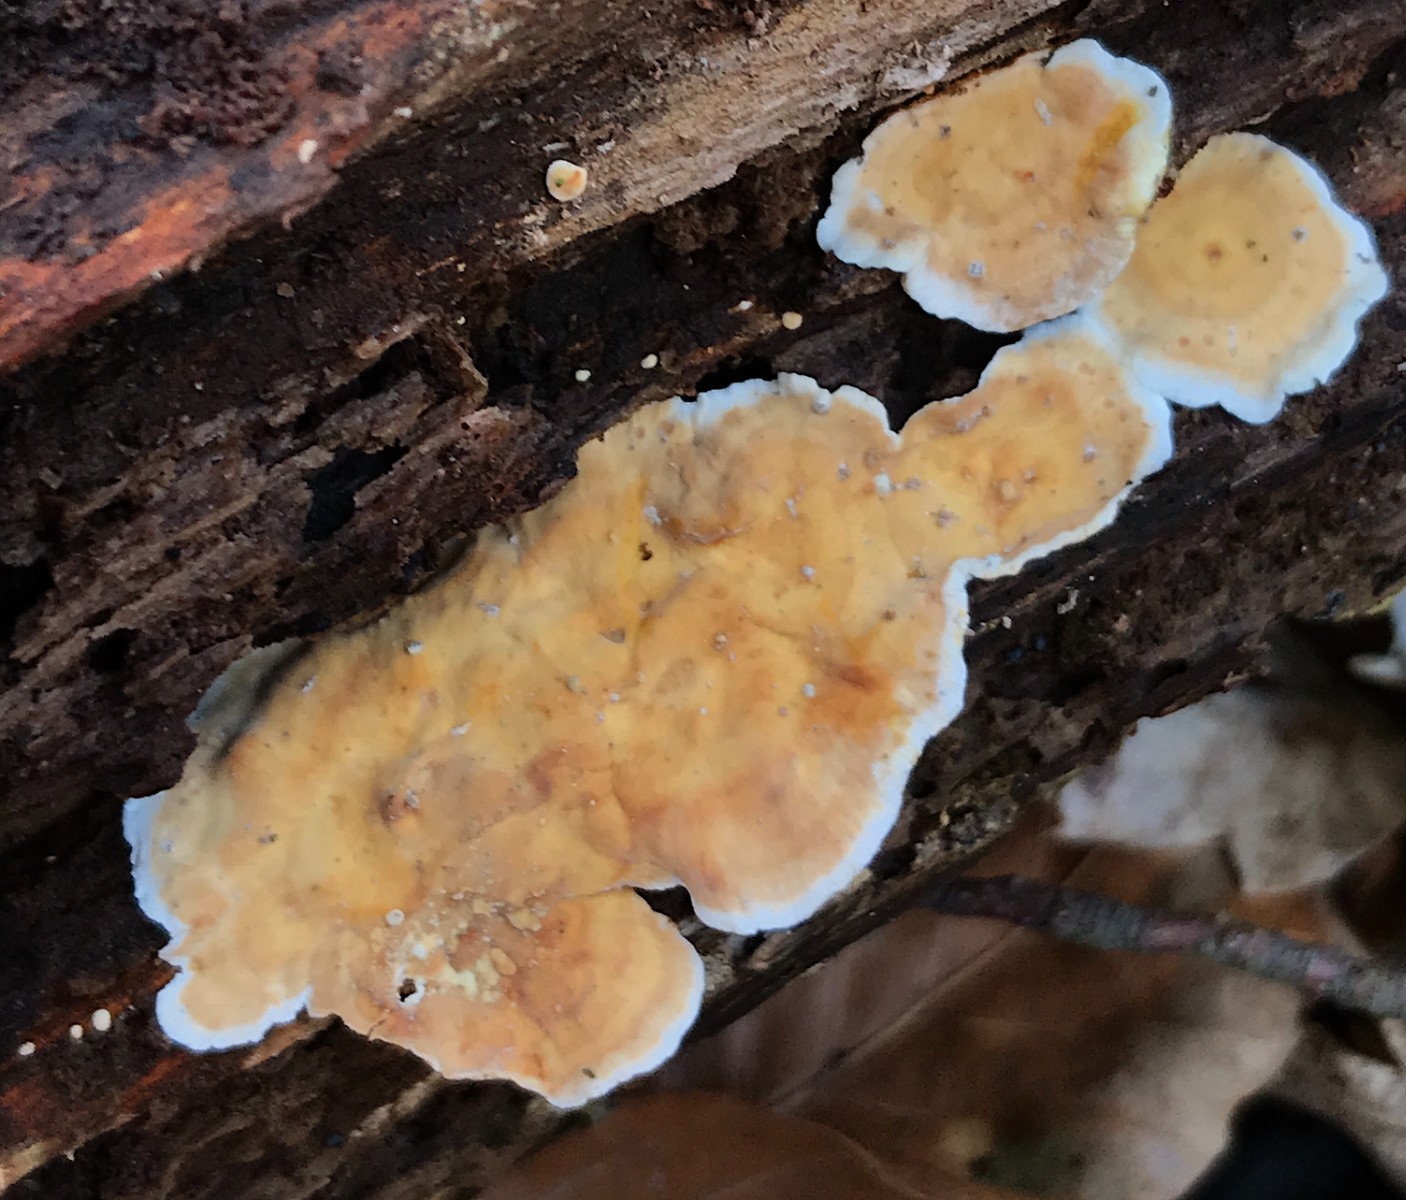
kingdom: Fungi
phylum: Basidiomycota
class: Agaricomycetes
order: Russulales
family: Stereaceae
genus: Stereum
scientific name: Stereum subtomentosum
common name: smuk lædersvamp
